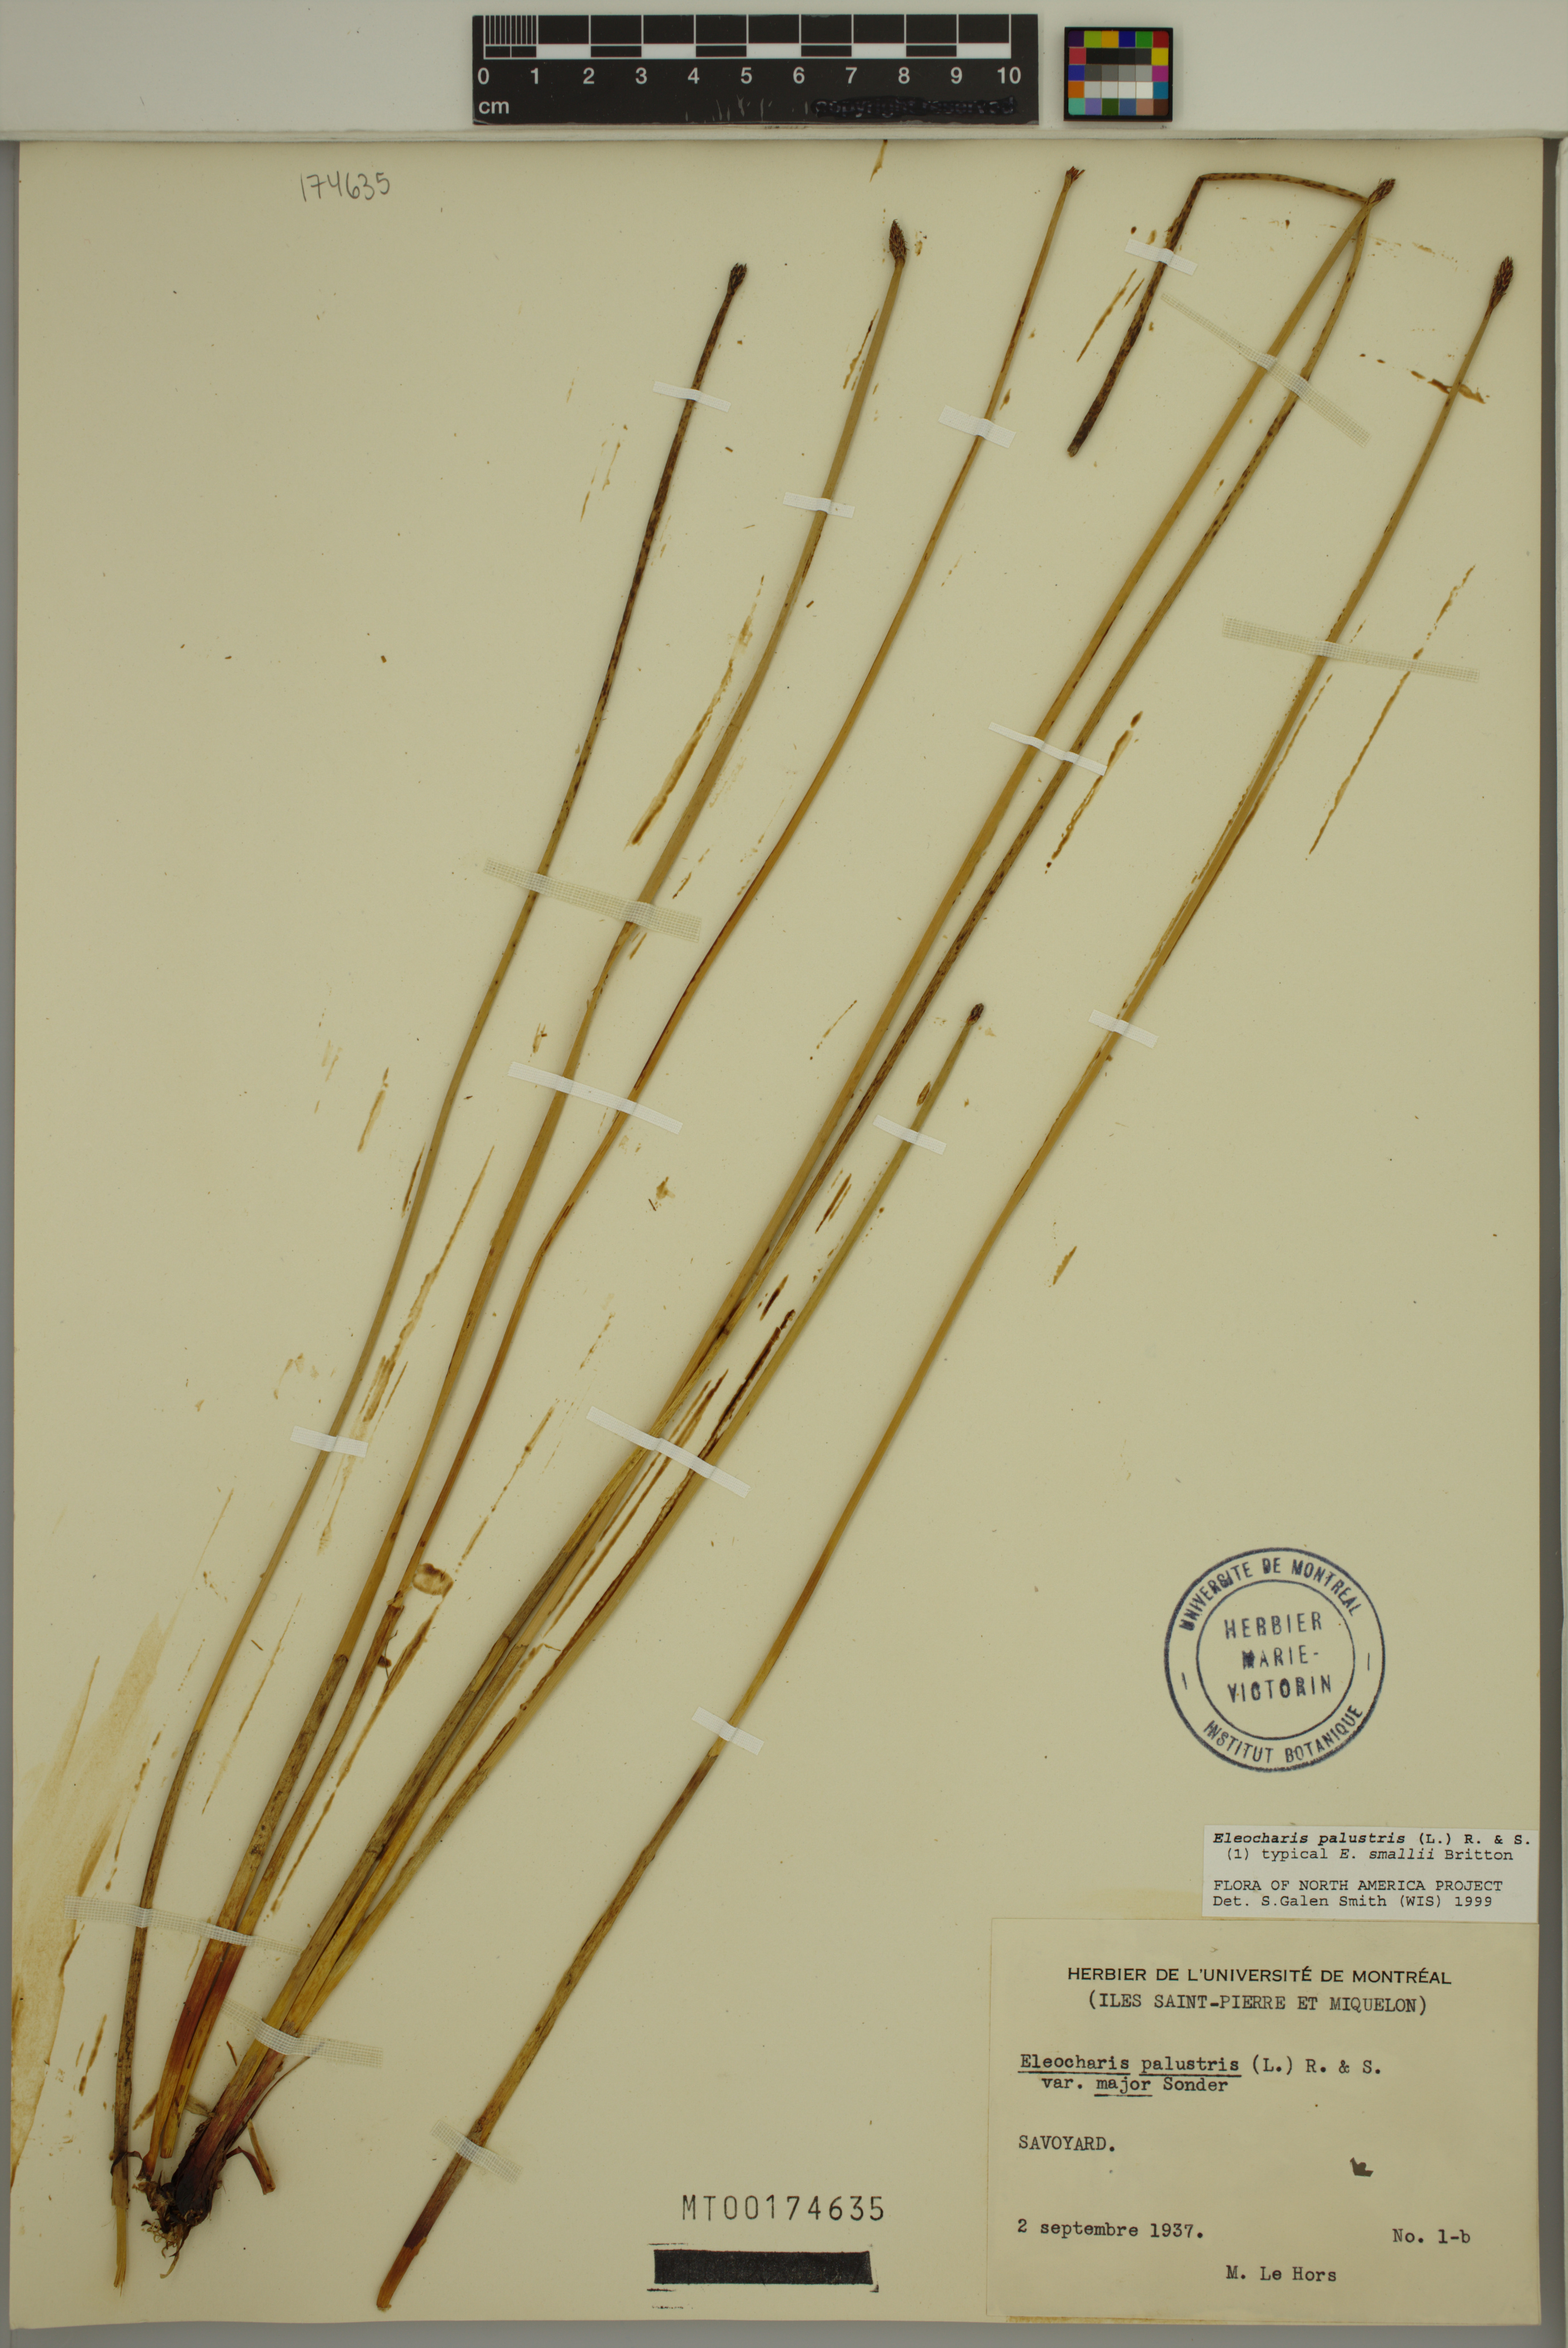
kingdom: Plantae
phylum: Tracheophyta
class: Liliopsida
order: Poales
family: Cyperaceae
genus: Eleocharis
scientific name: Eleocharis palustris
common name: Common spike-rush
